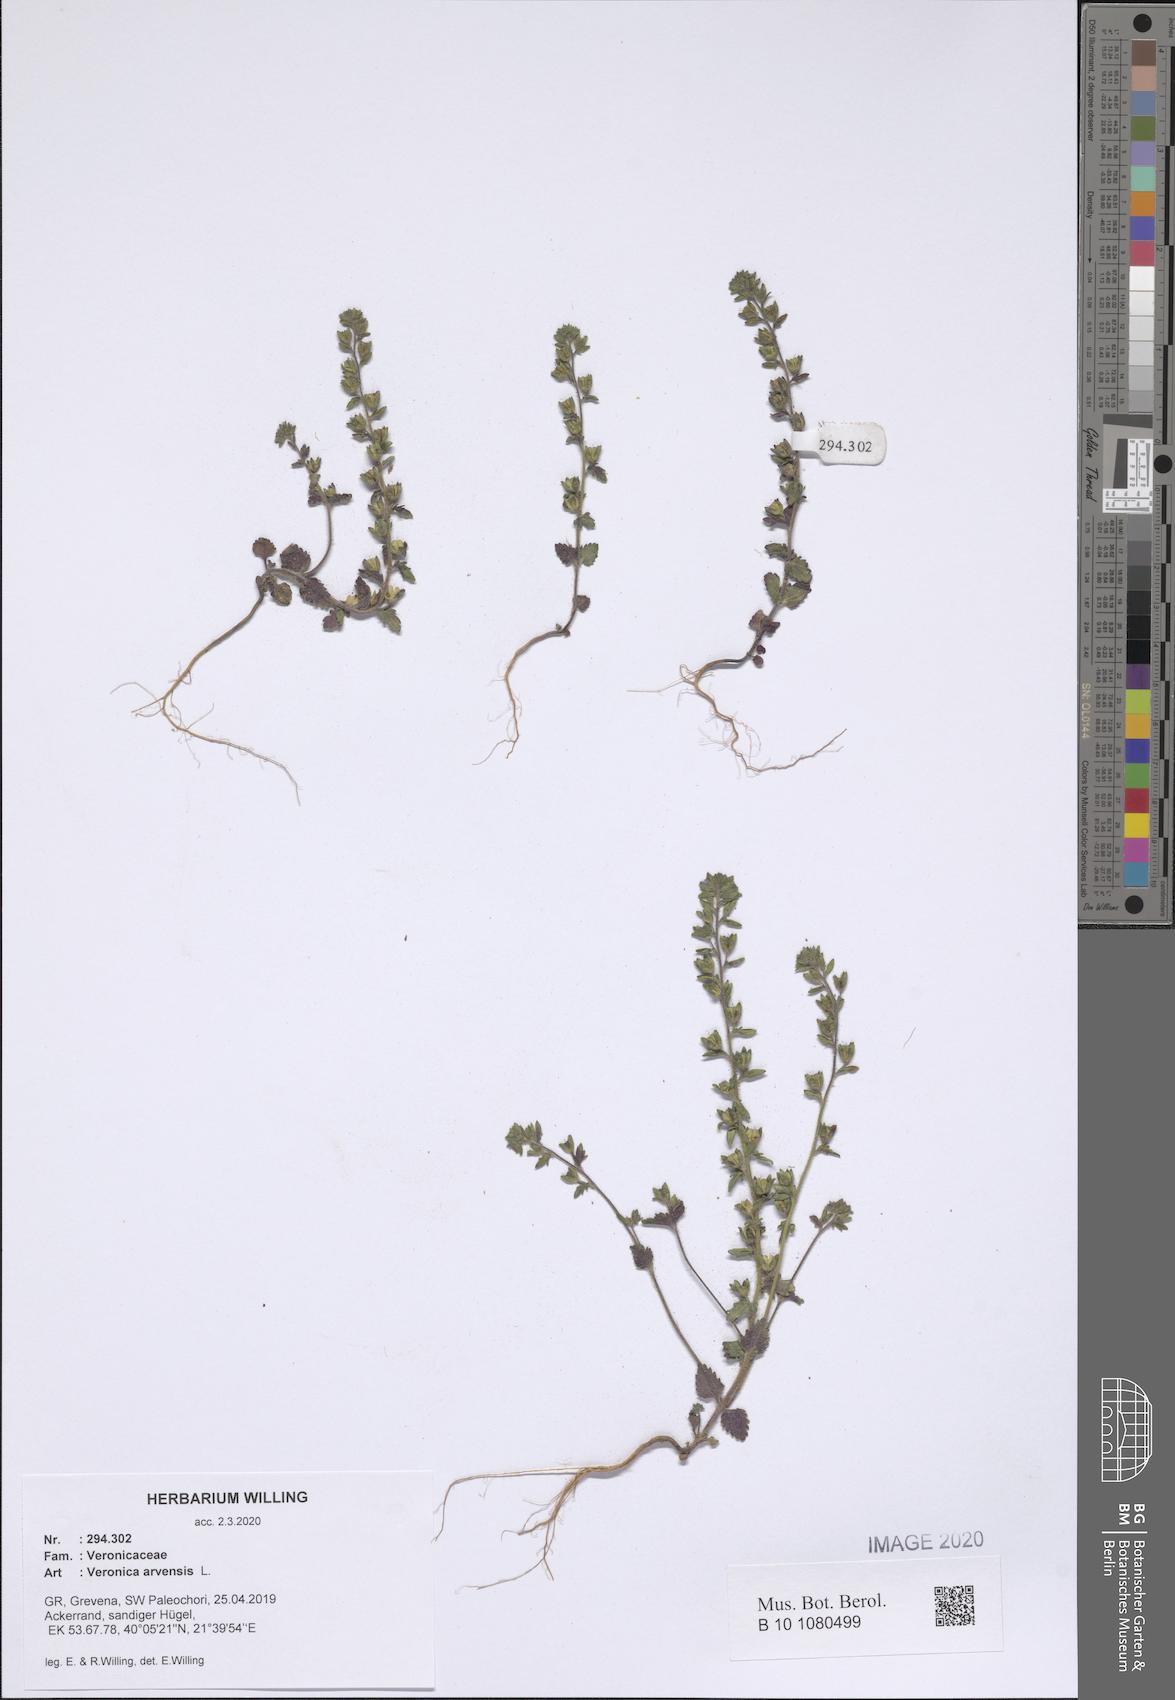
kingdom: Plantae
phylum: Tracheophyta
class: Magnoliopsida
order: Lamiales
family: Plantaginaceae
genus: Veronica
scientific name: Veronica arvensis
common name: Corn speedwell
